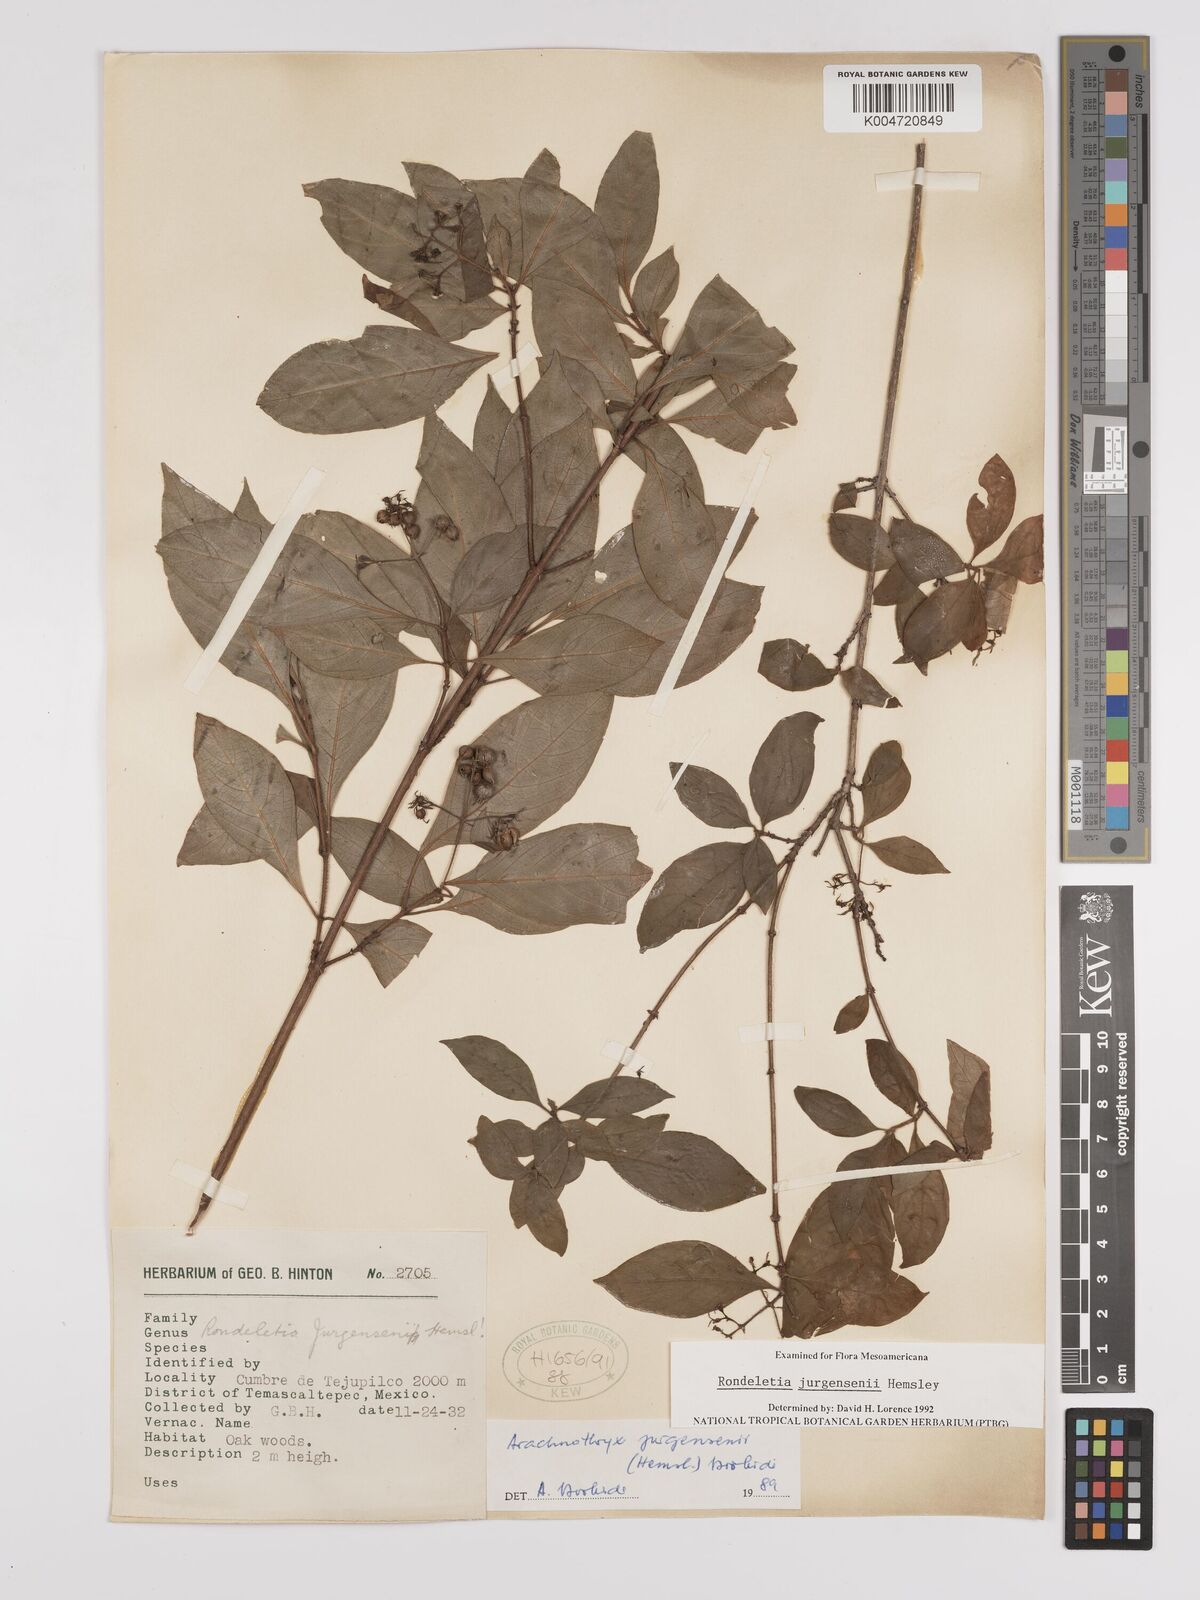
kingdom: Plantae
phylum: Tracheophyta
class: Magnoliopsida
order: Gentianales
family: Rubiaceae
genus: Arachnothryx
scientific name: Arachnothryx jurgensenii
